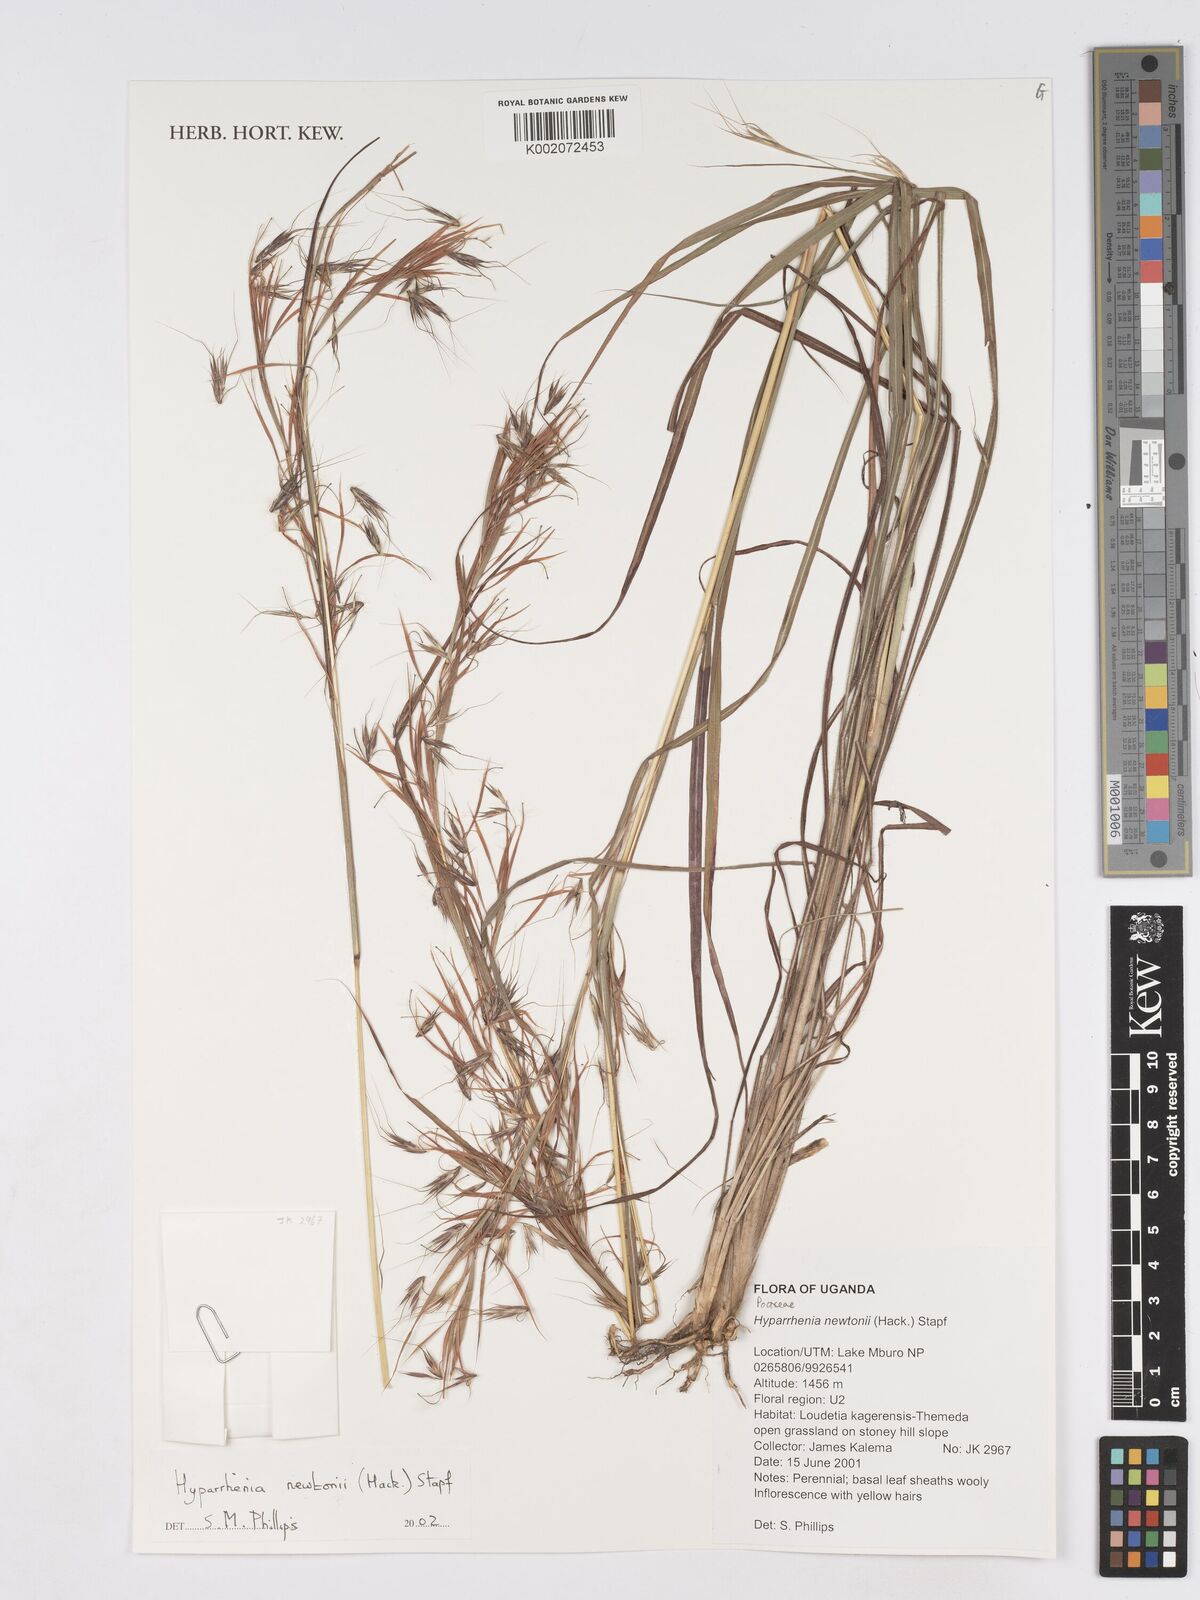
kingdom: Plantae
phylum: Tracheophyta
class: Liliopsida
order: Poales
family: Poaceae
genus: Hyparrhenia
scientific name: Hyparrhenia newtonii
